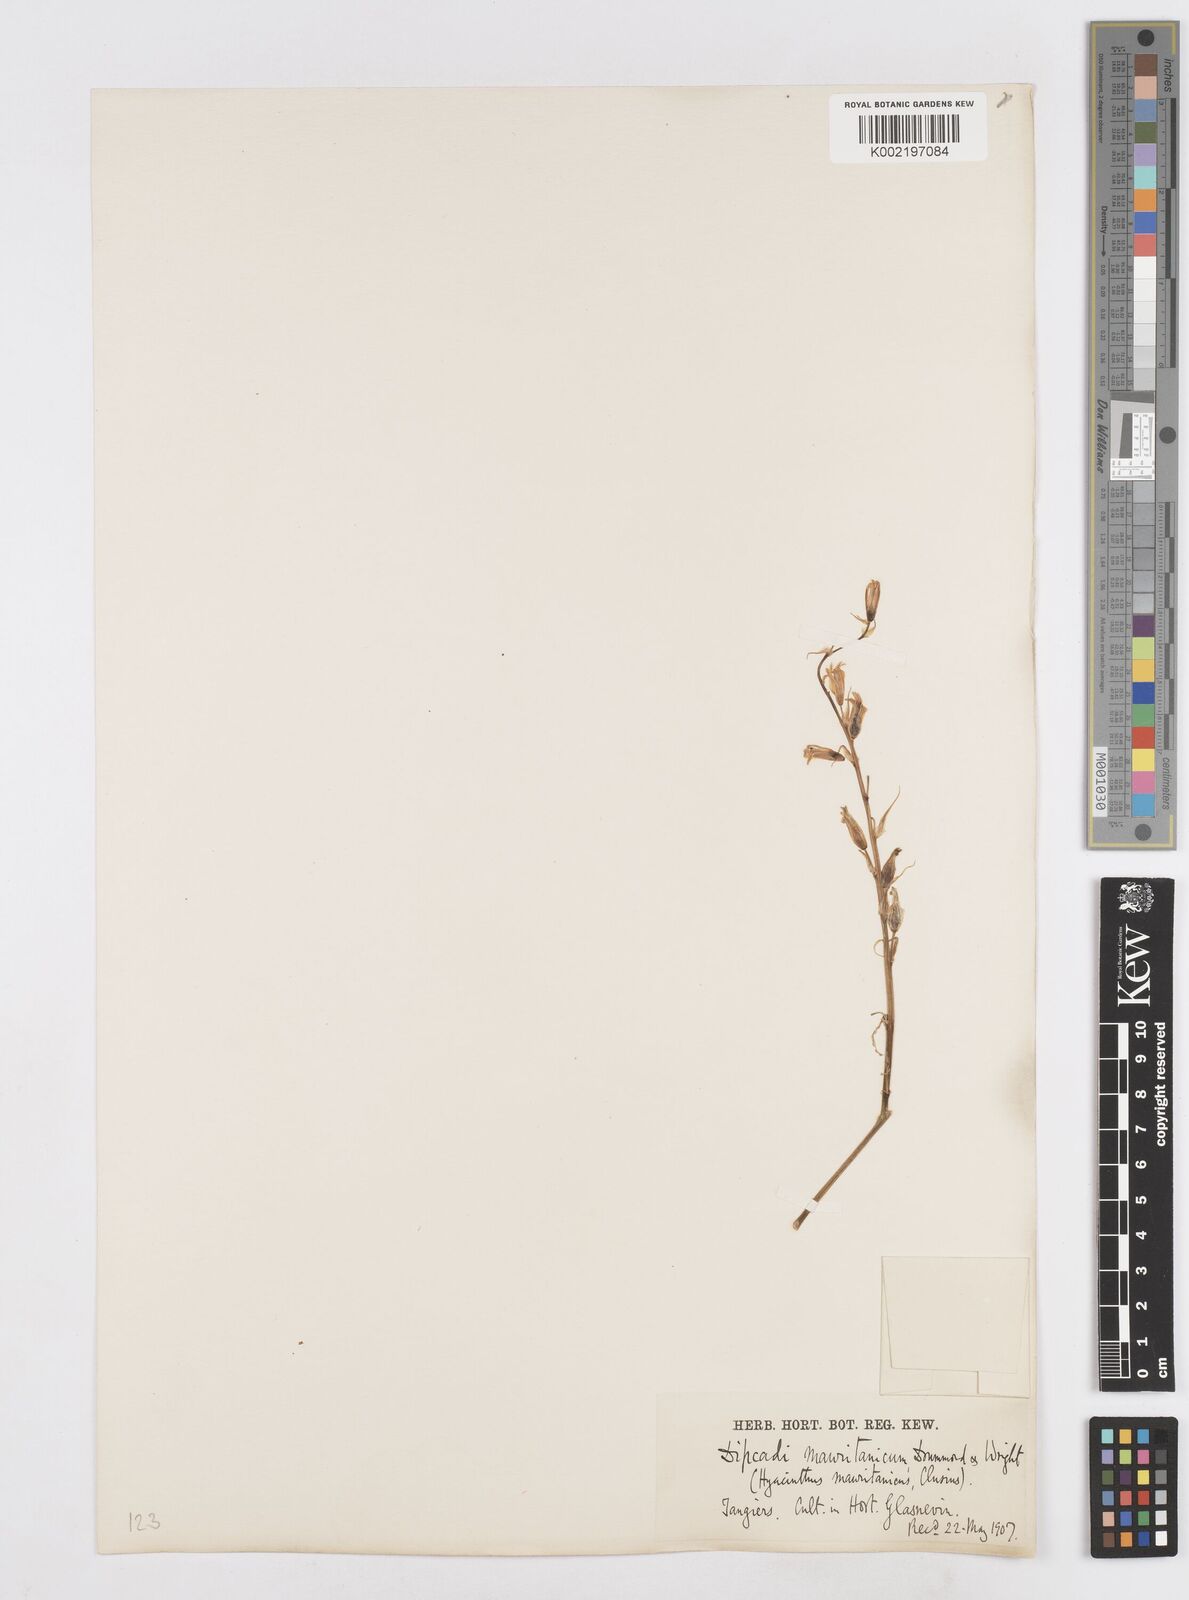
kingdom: Plantae
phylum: Tracheophyta
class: Liliopsida
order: Asparagales
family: Asparagaceae
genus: Dipcadi
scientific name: Dipcadi serotinum
